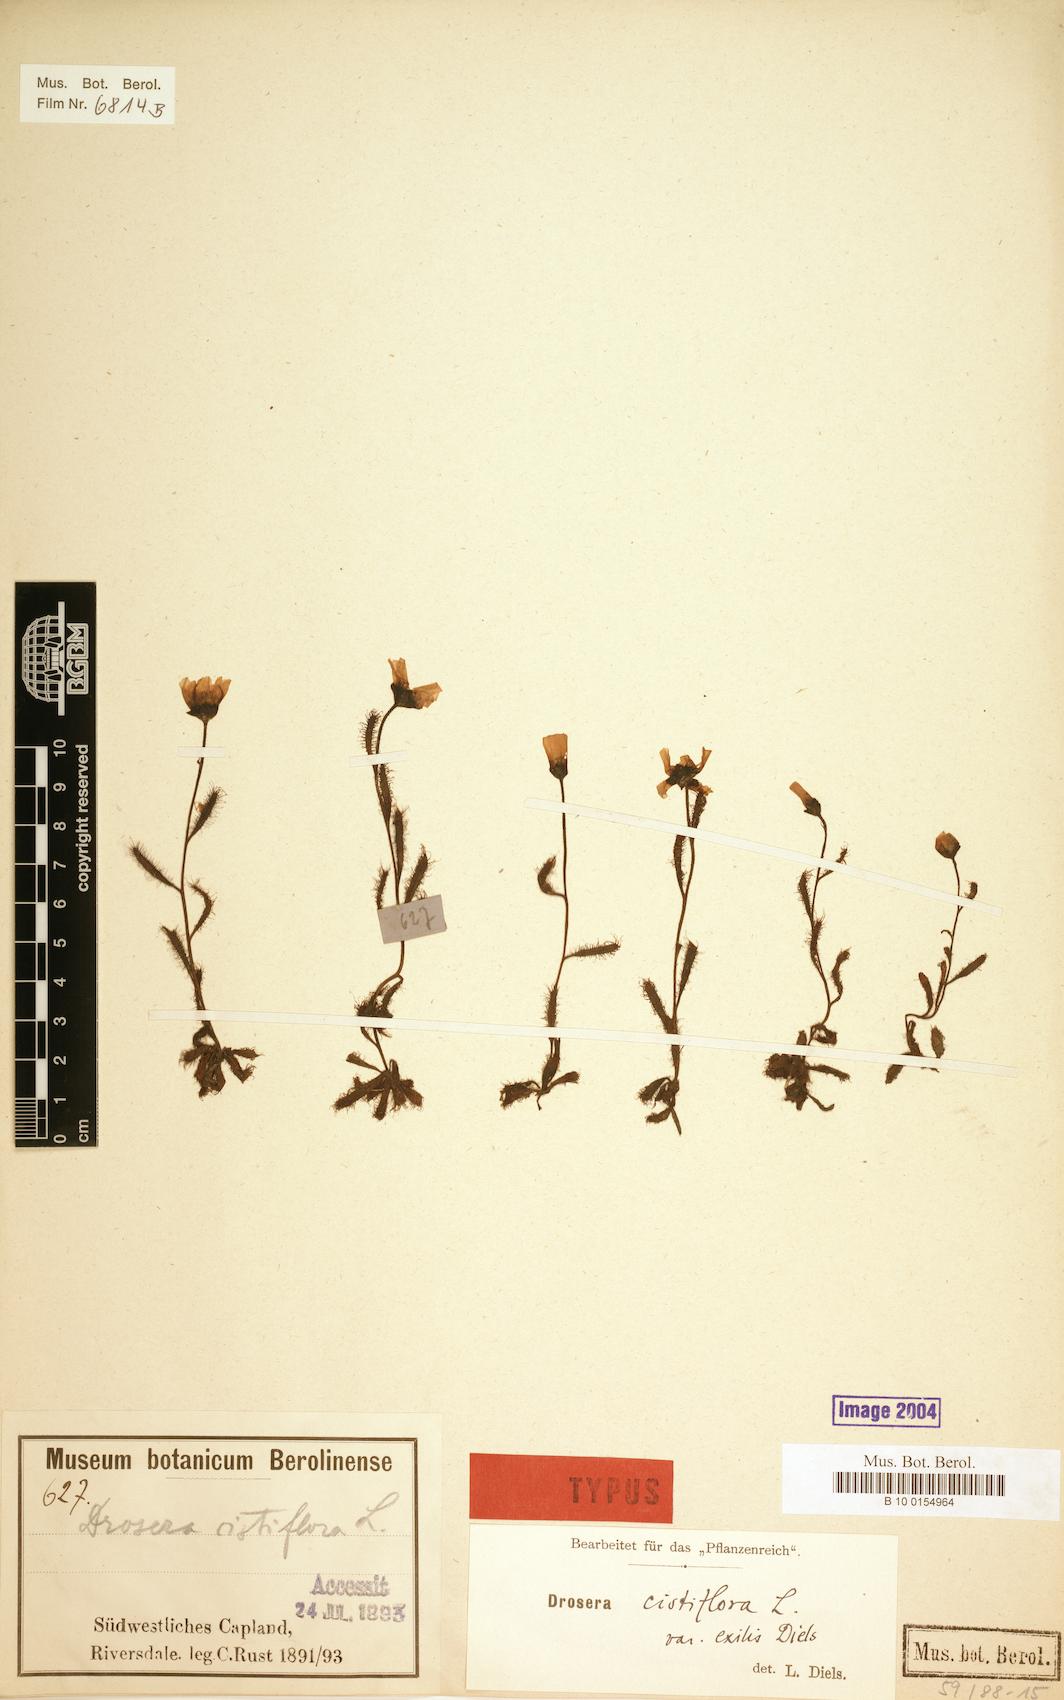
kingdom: Plantae
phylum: Tracheophyta
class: Magnoliopsida
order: Caryophyllales
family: Droseraceae
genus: Drosera
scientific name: Drosera cistiflora
